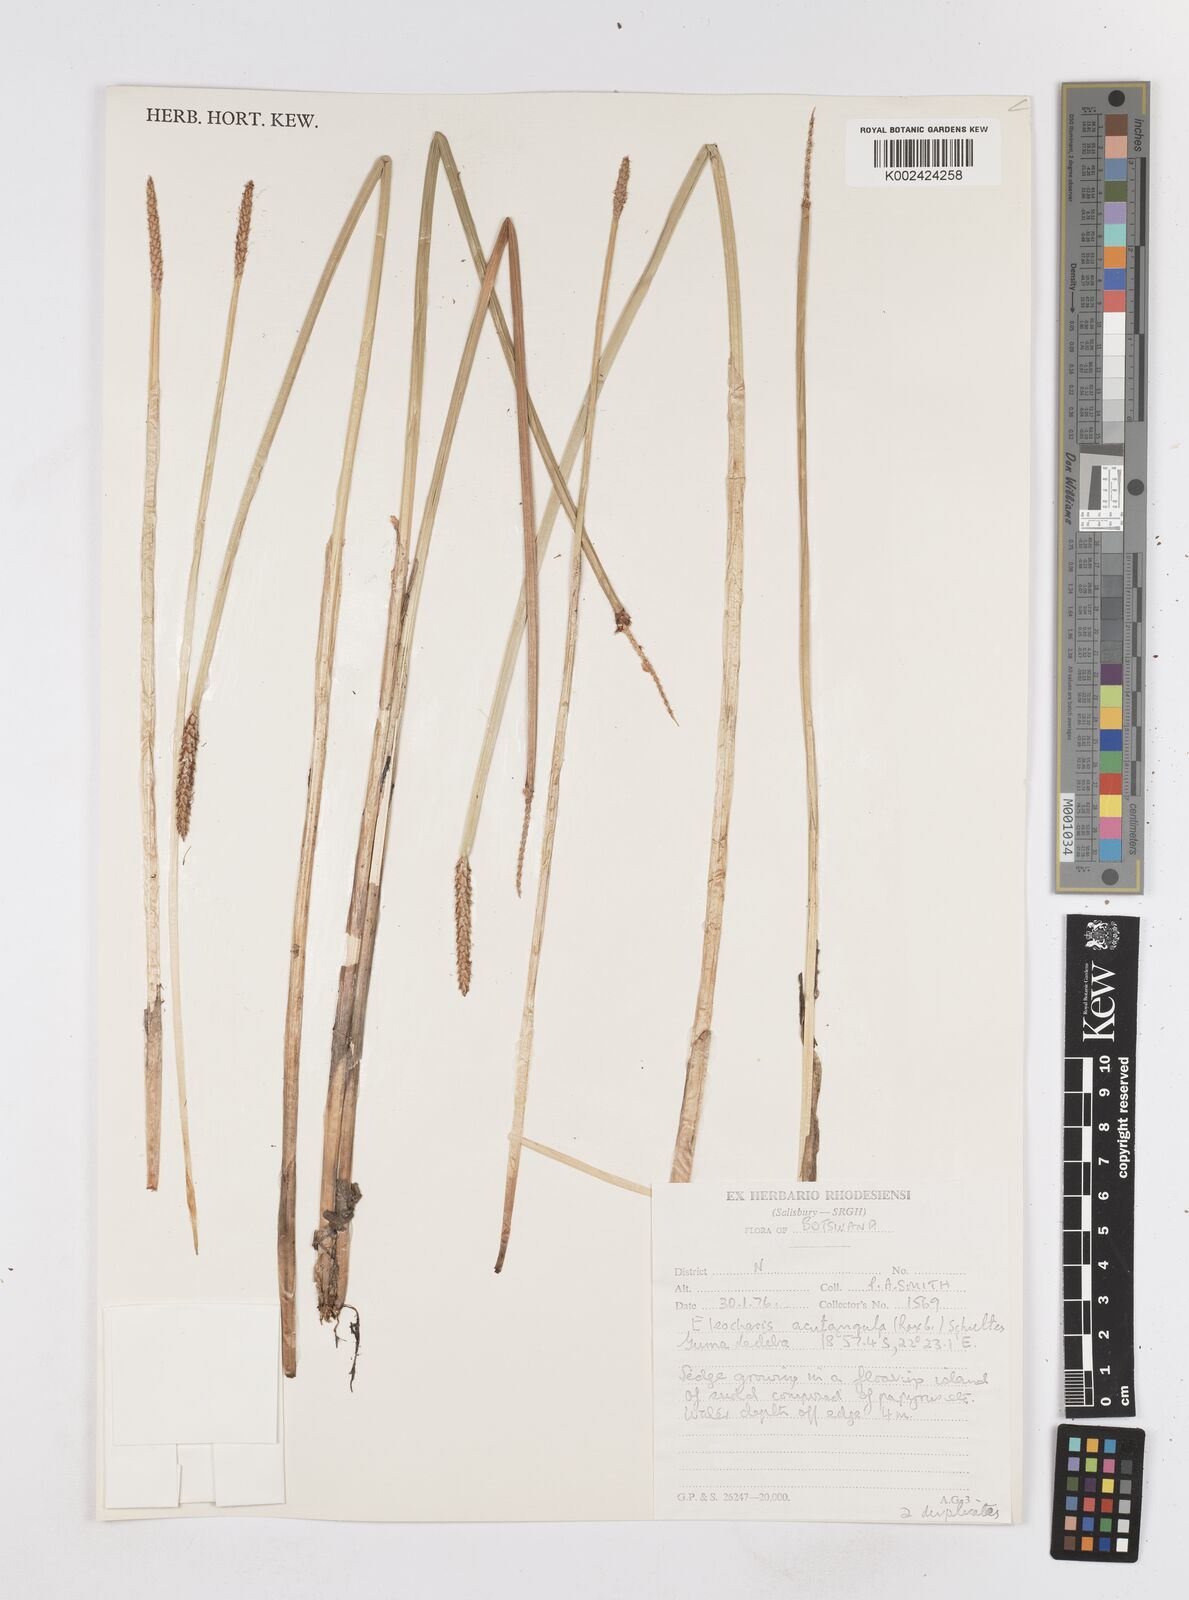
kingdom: Plantae
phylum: Tracheophyta
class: Liliopsida
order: Poales
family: Cyperaceae
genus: Eleocharis
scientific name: Eleocharis acutangula
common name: Acute spikerush
